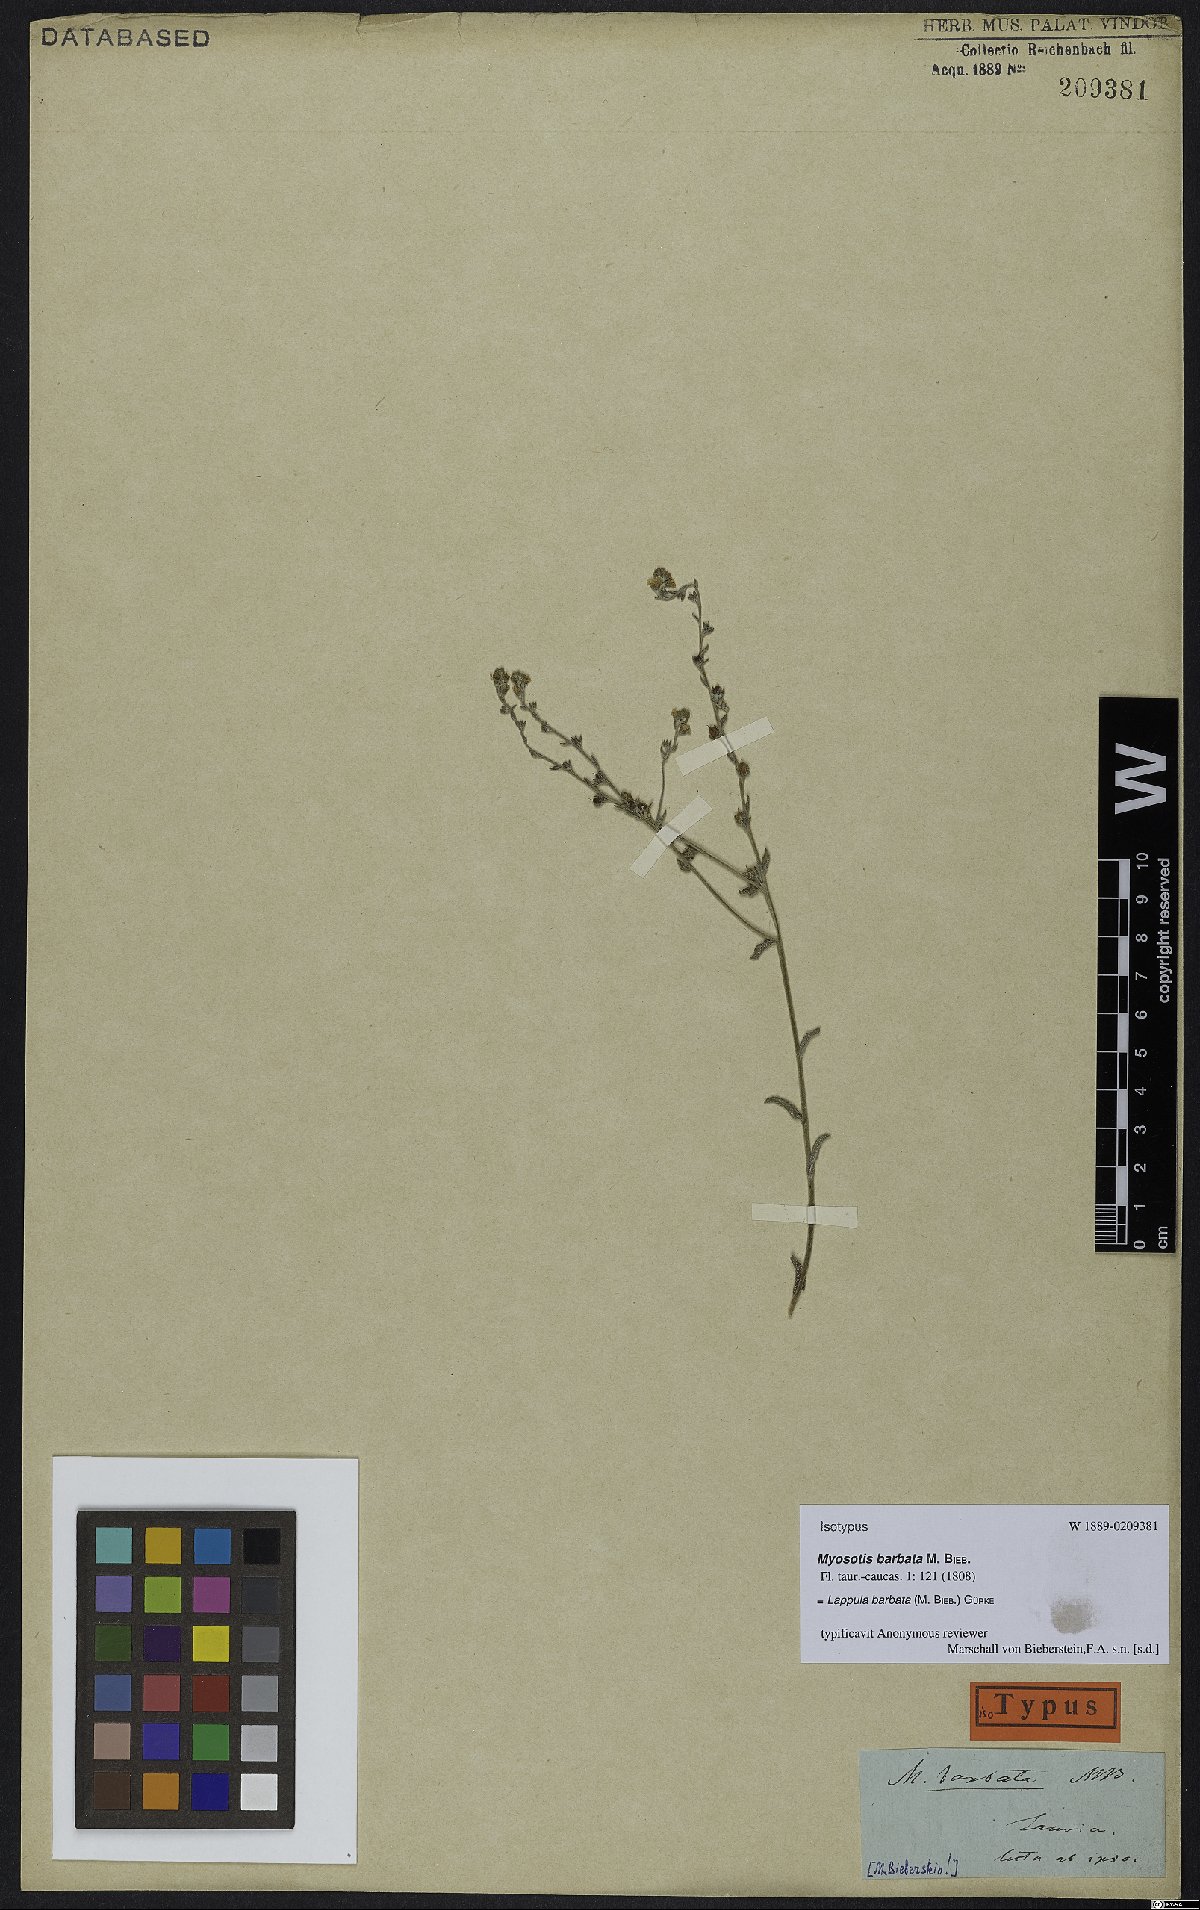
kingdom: Plantae
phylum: Tracheophyta
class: Magnoliopsida
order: Boraginales
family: Boraginaceae
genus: Lappula
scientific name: Lappula barbata
